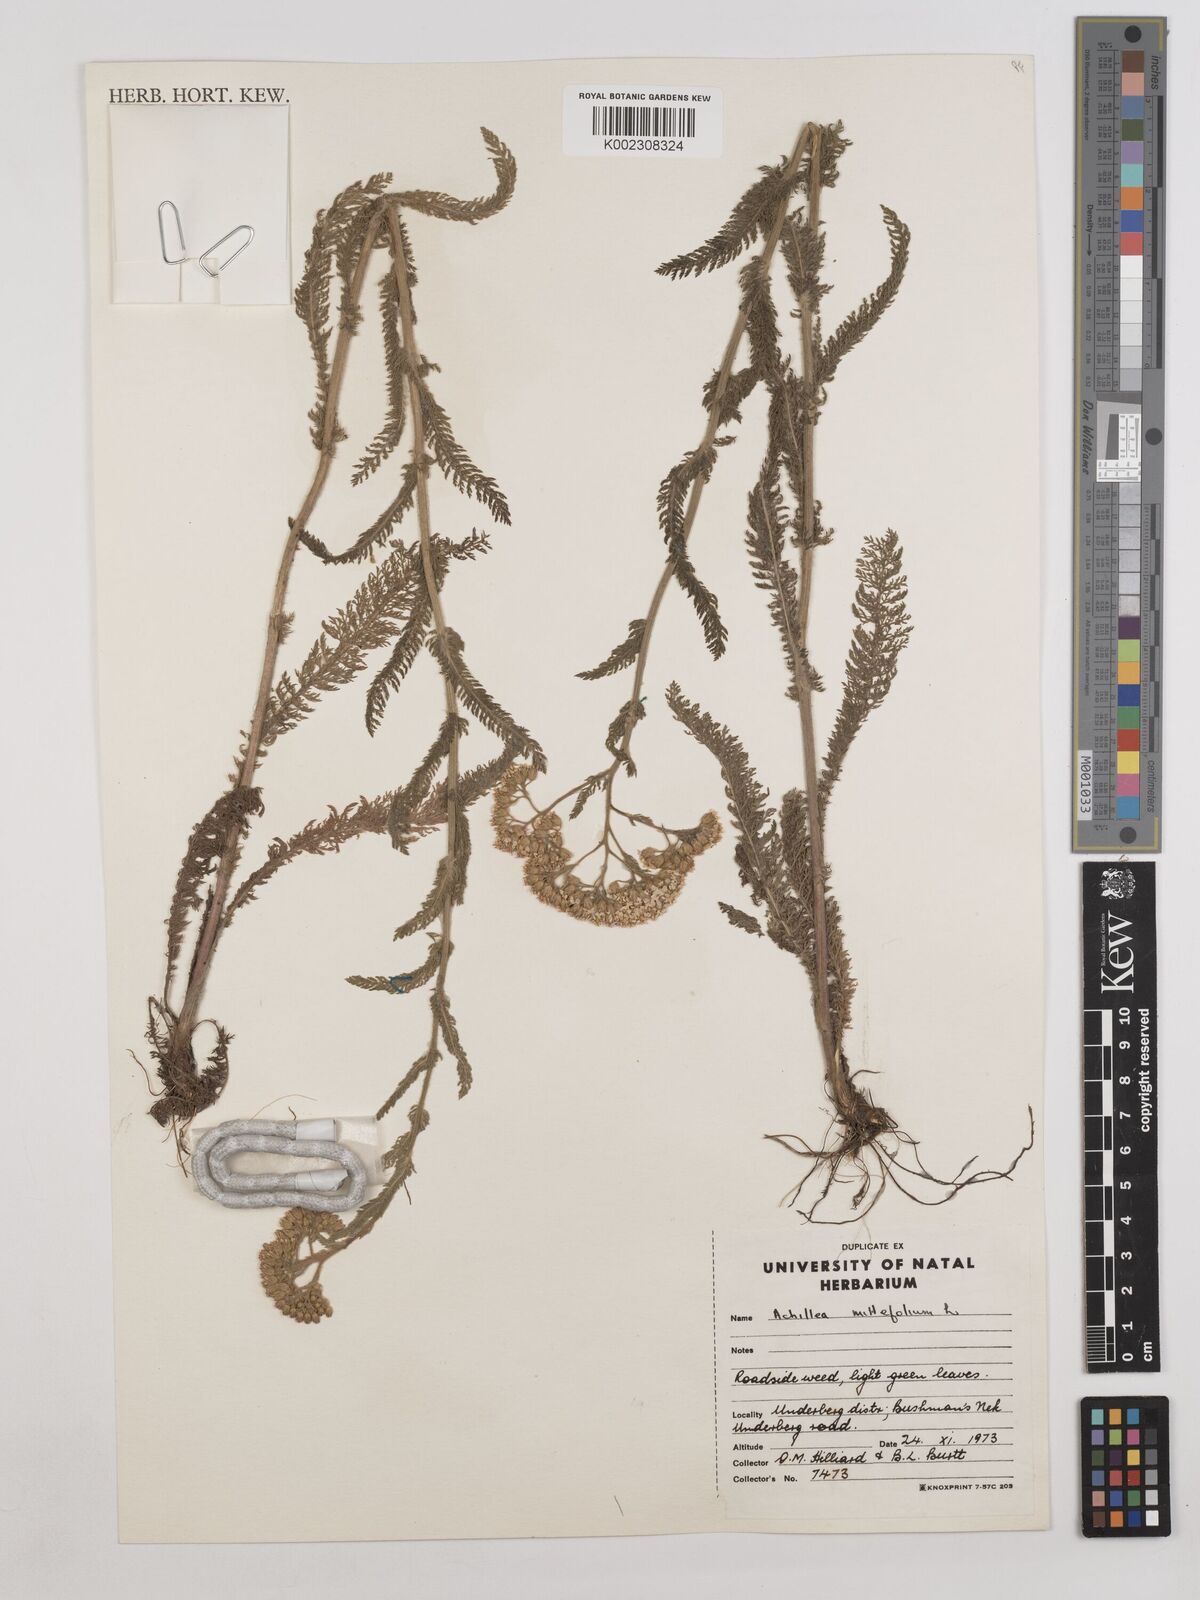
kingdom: Plantae
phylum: Tracheophyta
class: Magnoliopsida
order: Asterales
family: Asteraceae
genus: Achillea
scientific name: Achillea millefolium
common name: Yarrow
